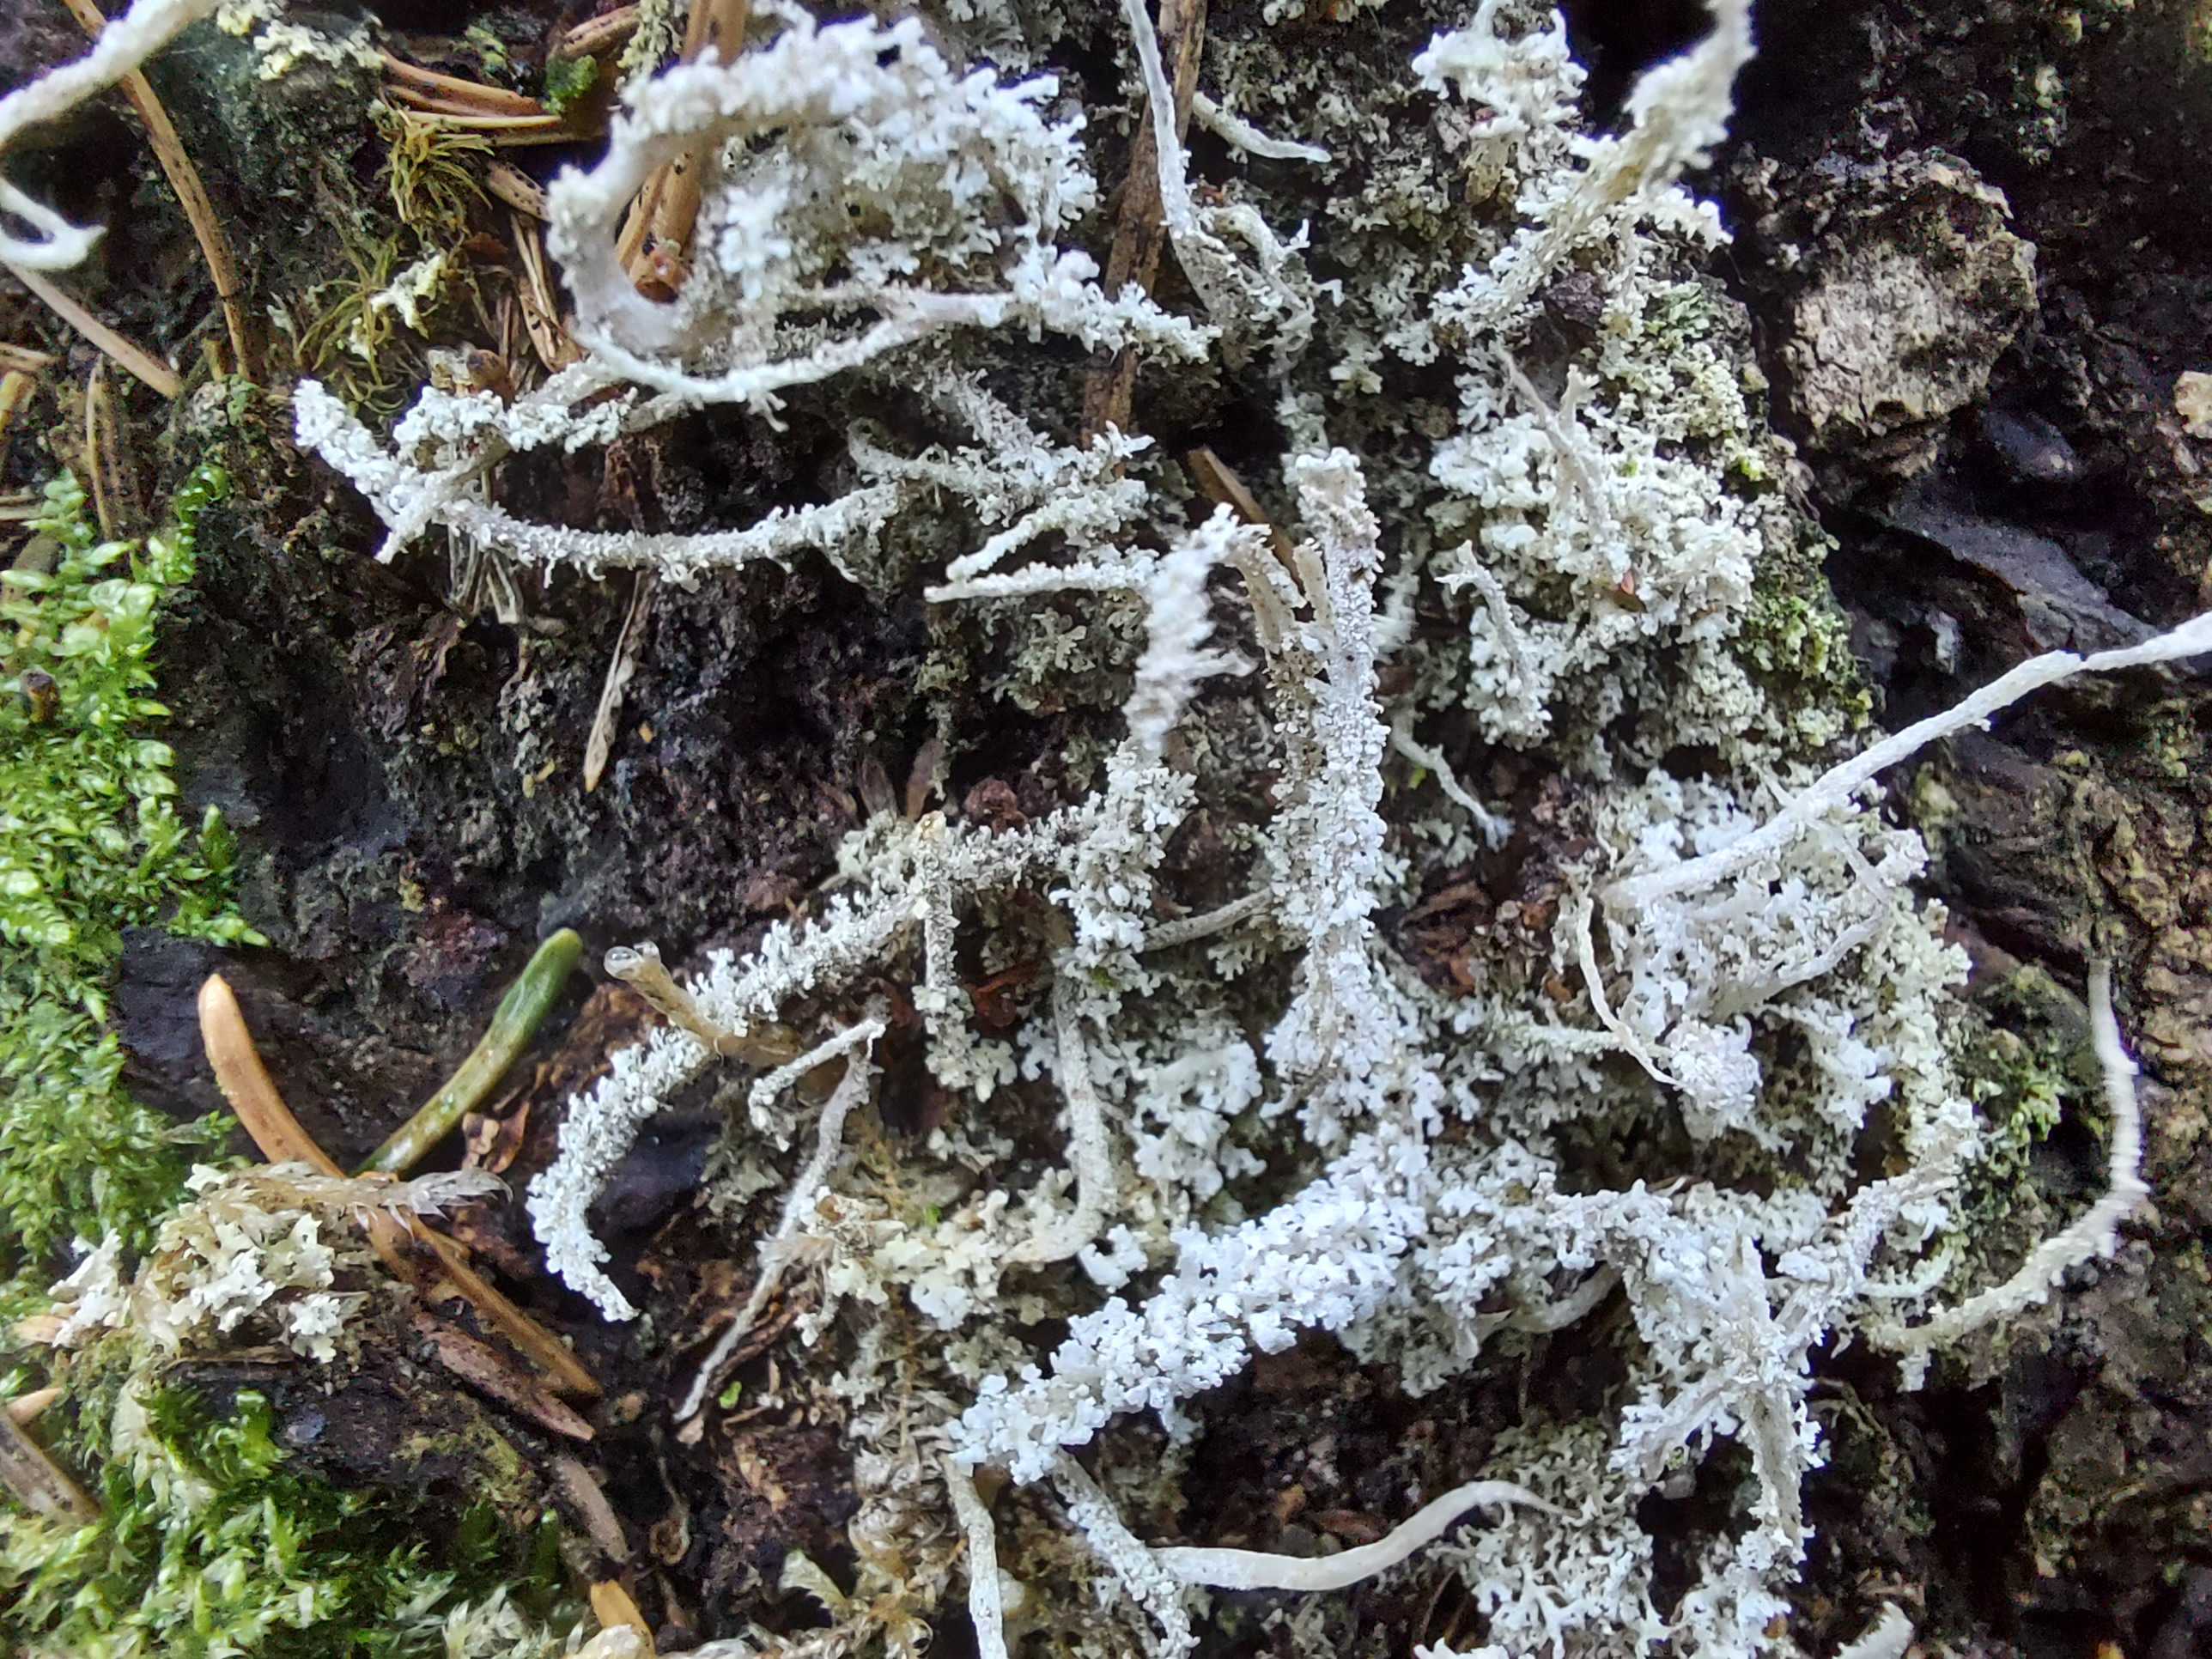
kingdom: Fungi
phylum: Ascomycota
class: Lecanoromycetes
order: Lecanorales
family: Cladoniaceae
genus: Cladonia
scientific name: Cladonia squamosa
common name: skælklædt bægerlav
